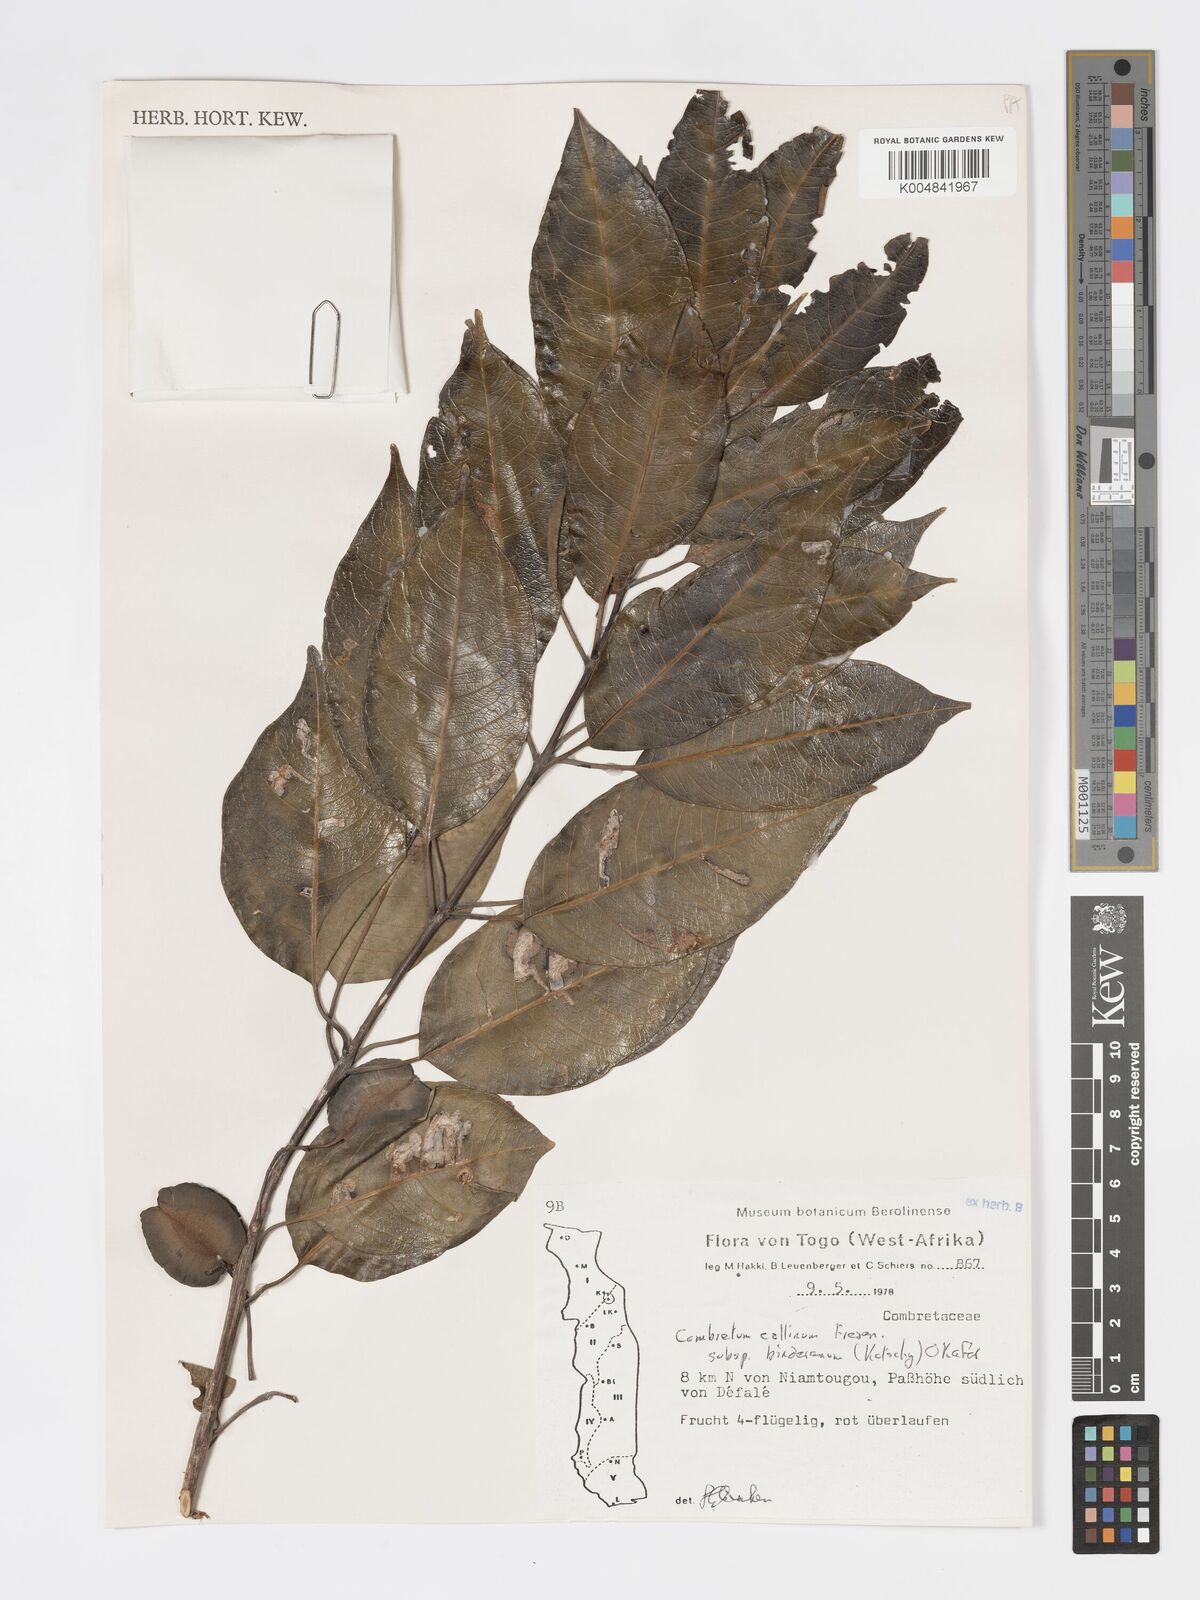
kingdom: Plantae
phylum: Tracheophyta
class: Magnoliopsida
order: Myrtales
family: Combretaceae
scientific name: Combretaceae
